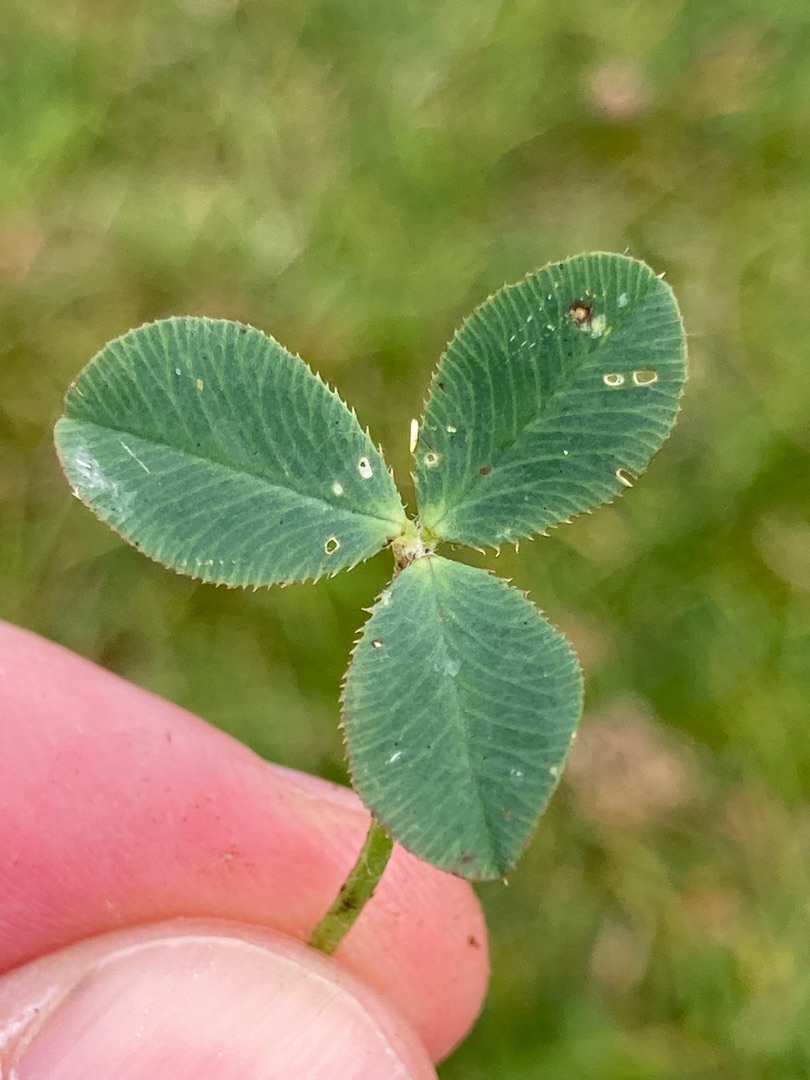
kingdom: Plantae
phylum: Tracheophyta
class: Magnoliopsida
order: Fabales
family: Fabaceae
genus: Trifolium
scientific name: Trifolium fragiferum
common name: Jordbær-kløver
